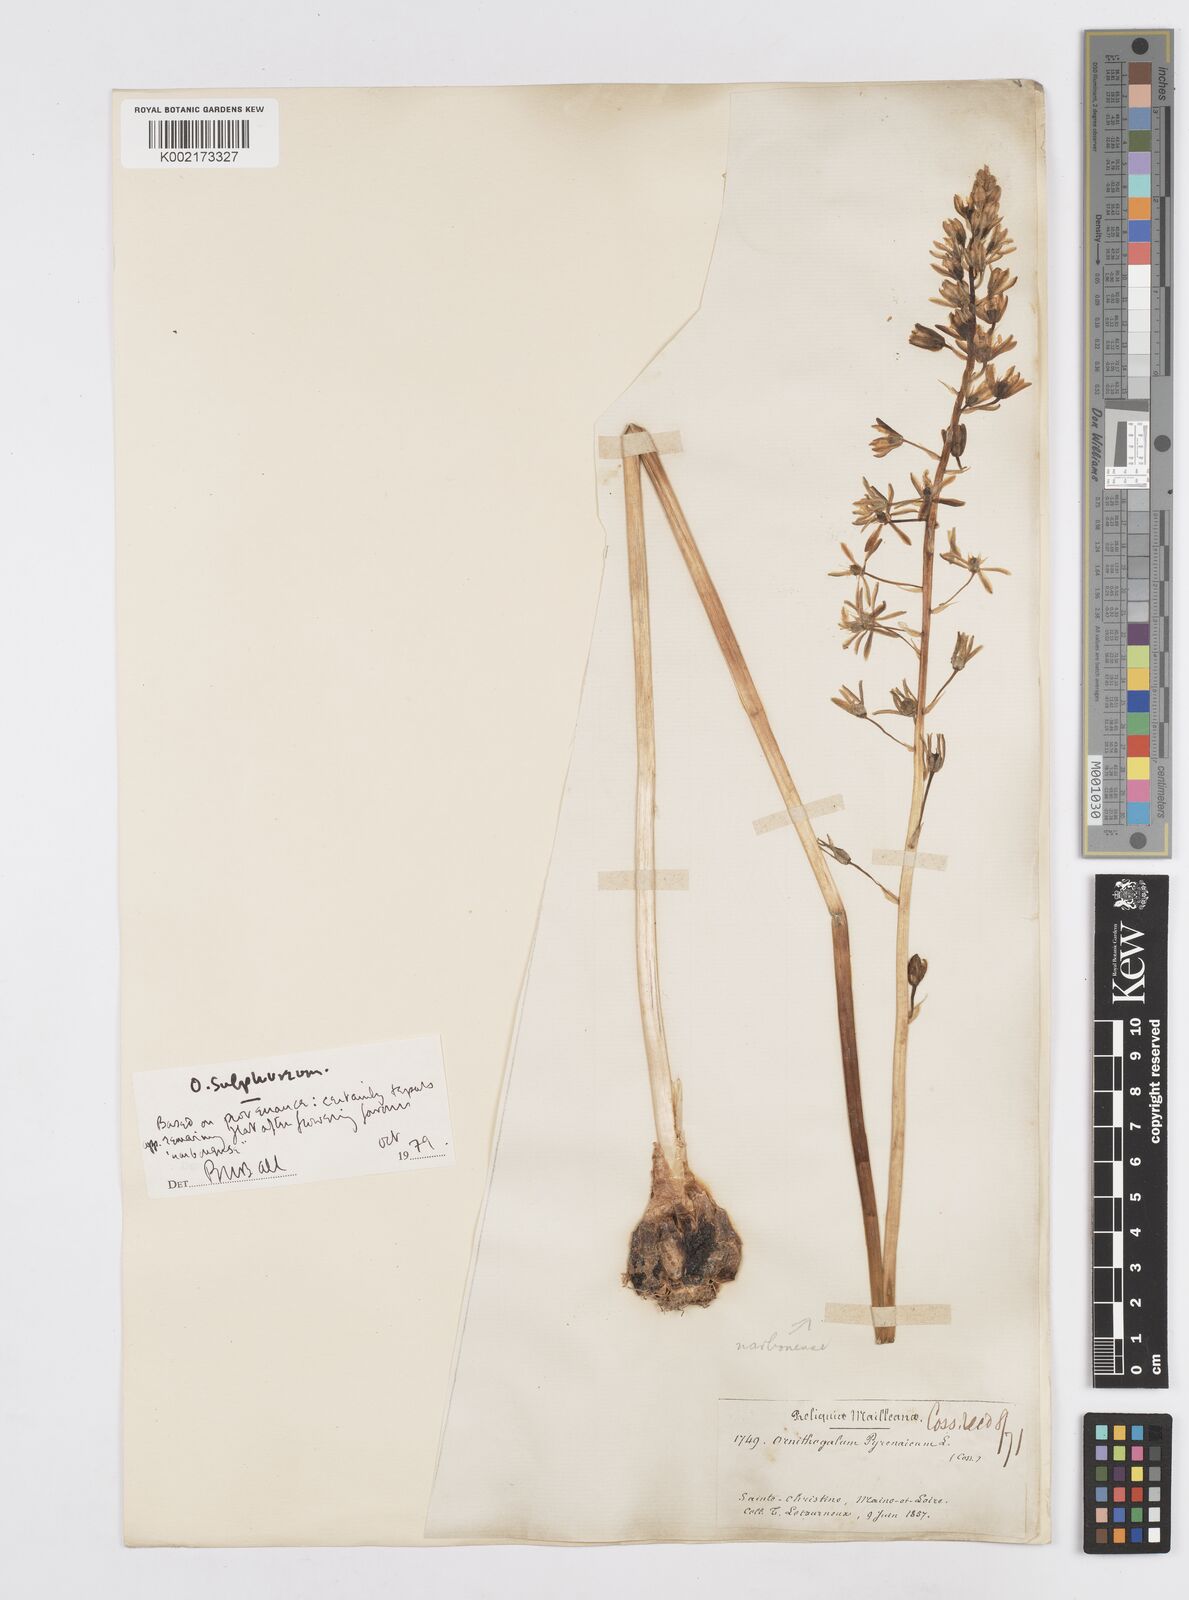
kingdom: Plantae
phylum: Tracheophyta
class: Liliopsida
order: Asparagales
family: Asparagaceae
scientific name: Asparagaceae
